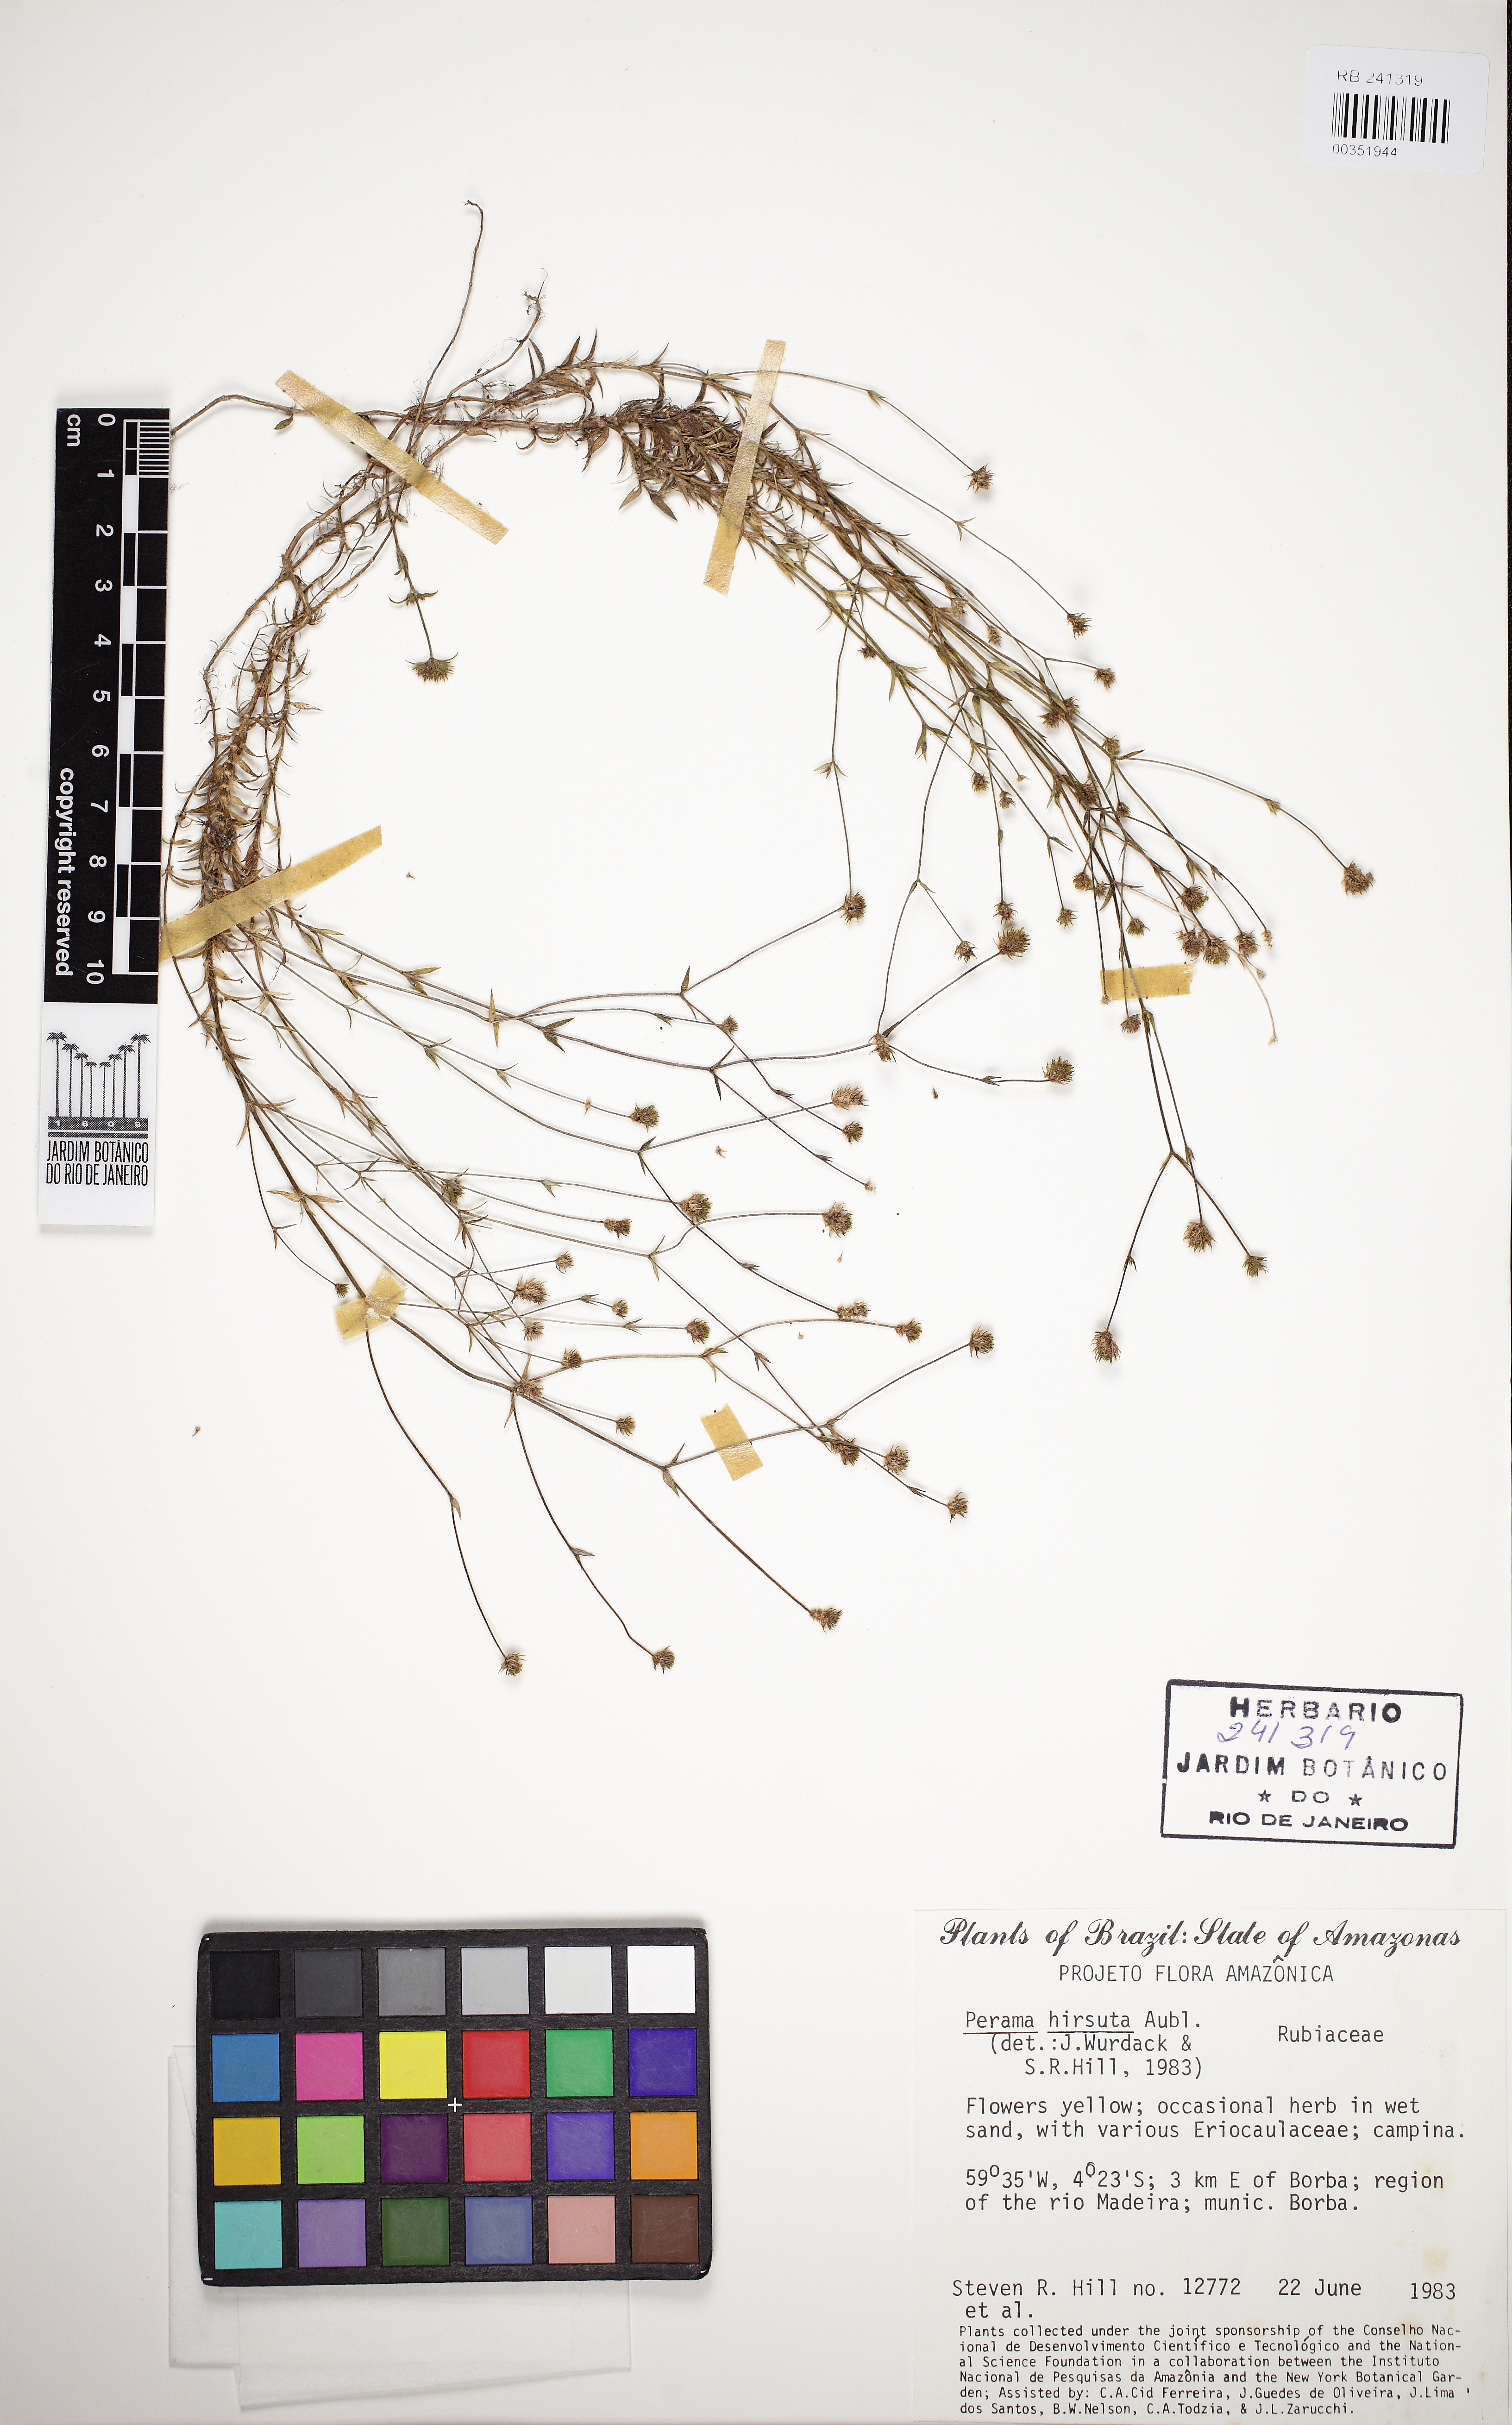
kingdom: Plantae
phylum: Tracheophyta
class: Magnoliopsida
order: Gentianales
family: Rubiaceae
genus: Perama
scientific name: Perama hirsuta
